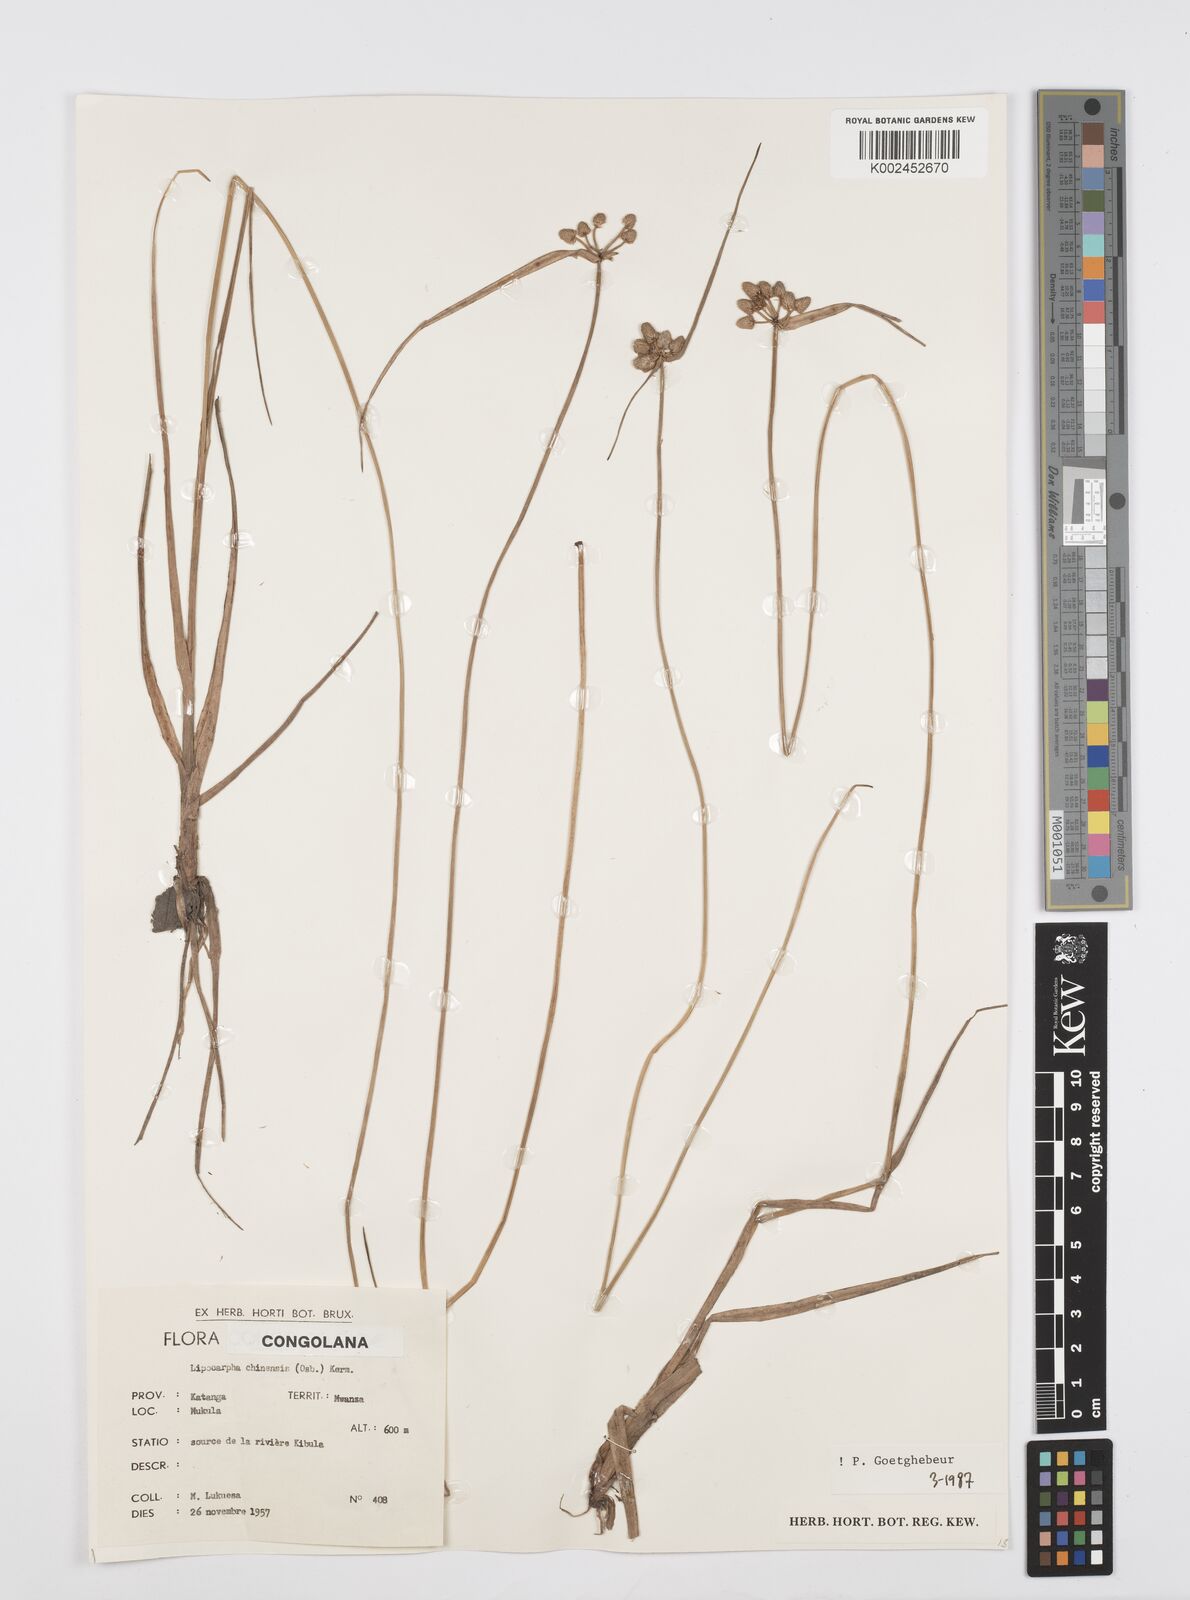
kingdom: Plantae
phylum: Tracheophyta
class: Liliopsida
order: Poales
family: Cyperaceae
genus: Cyperus
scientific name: Cyperus albescens
